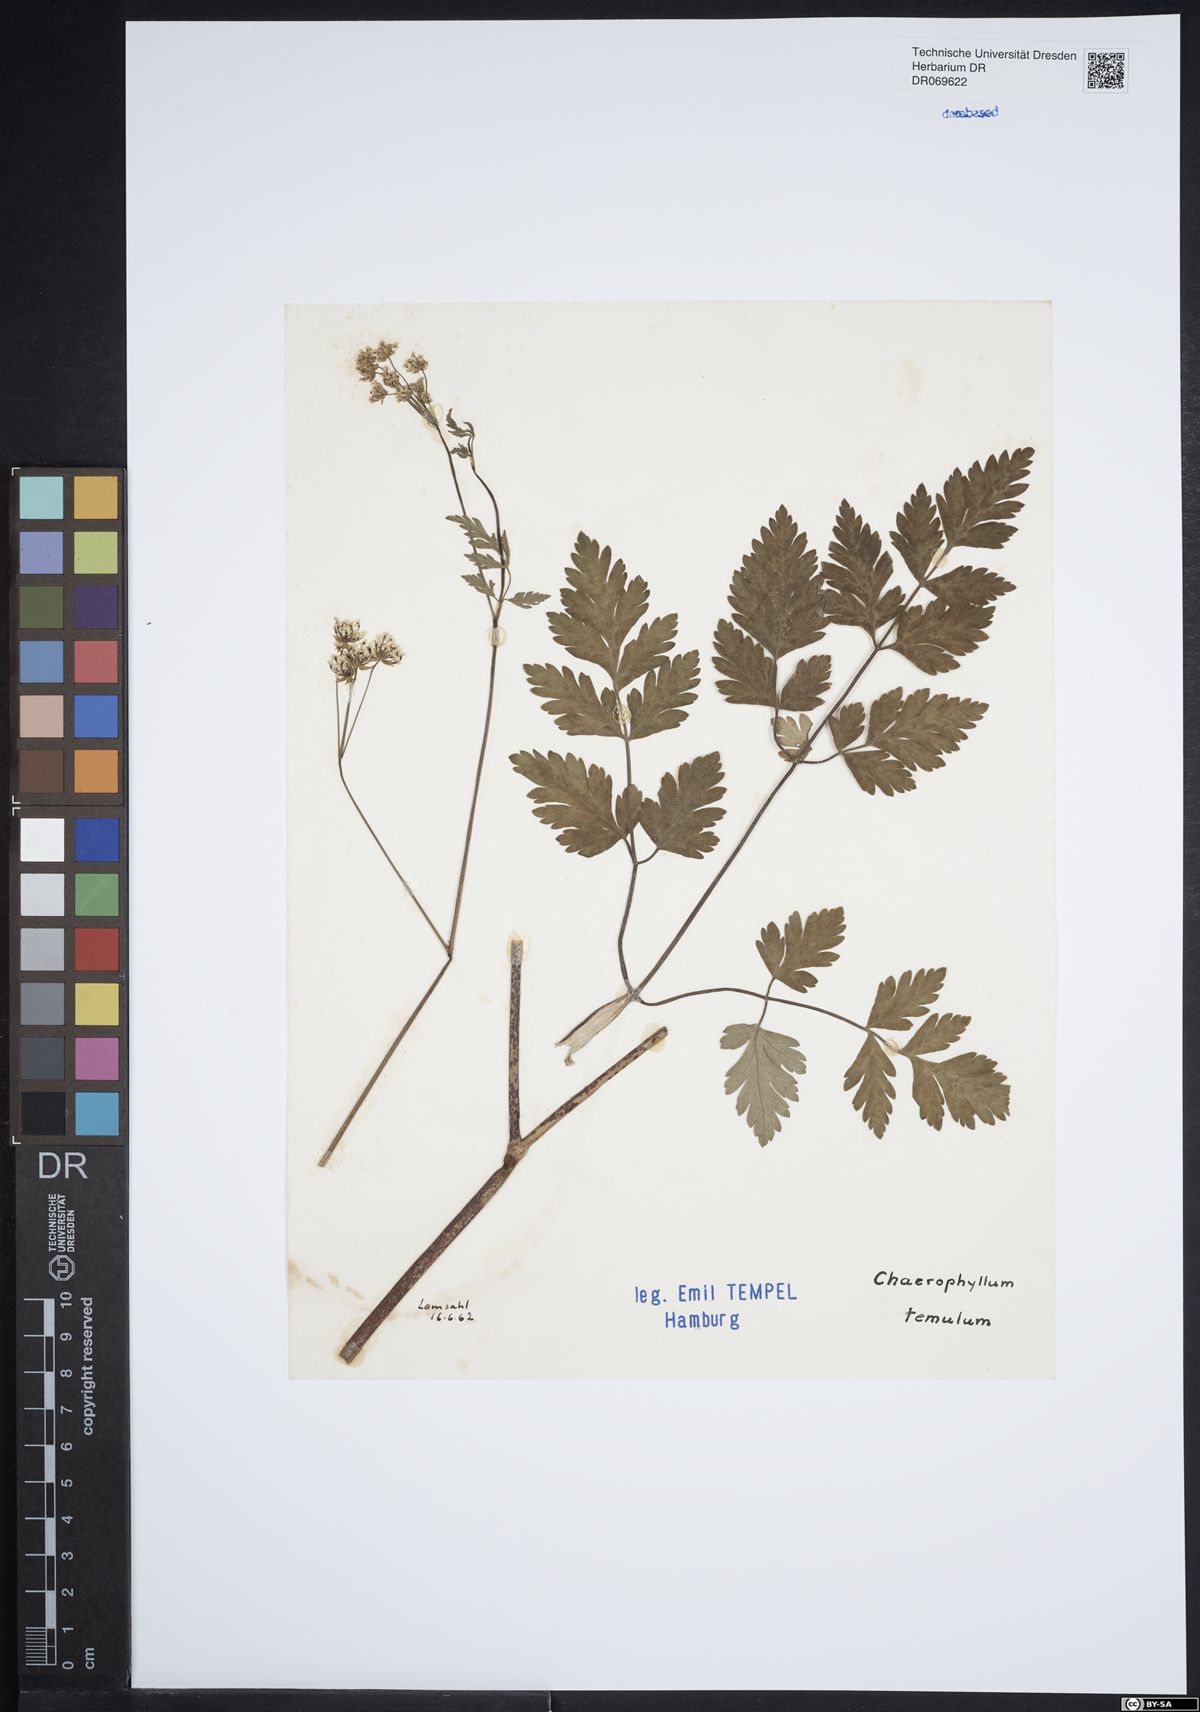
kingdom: Plantae
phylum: Tracheophyta
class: Magnoliopsida
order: Apiales
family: Apiaceae
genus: Chaerophyllum
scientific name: Chaerophyllum temulum
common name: Rough chervil
